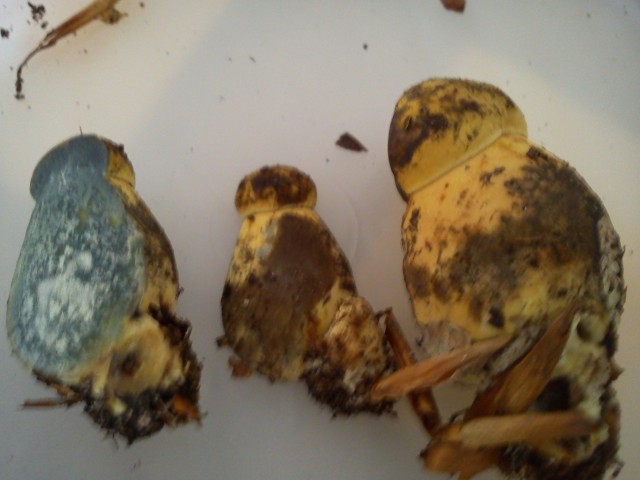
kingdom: Fungi
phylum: Basidiomycota
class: Agaricomycetes
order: Boletales
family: Boletaceae
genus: Cyanoboletus
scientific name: Cyanoboletus pulverulentus
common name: sortblånende rørhat
